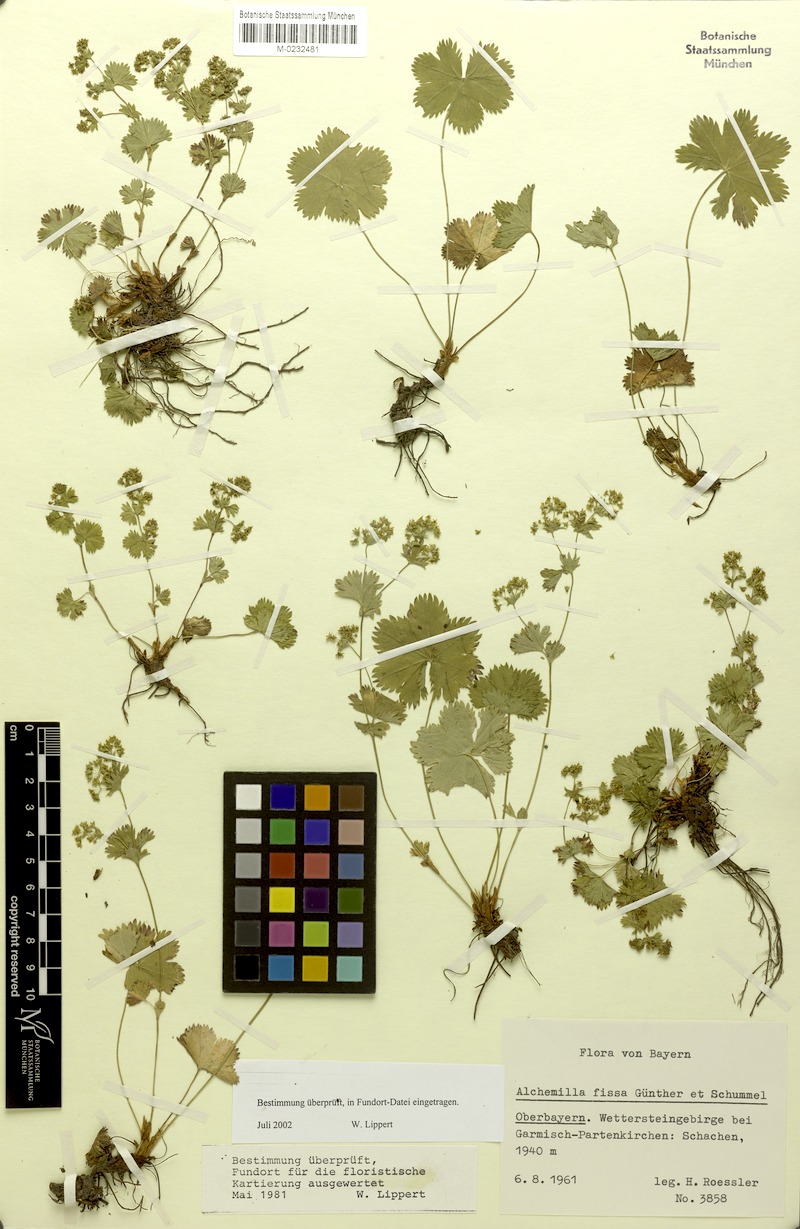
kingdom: Plantae
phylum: Tracheophyta
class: Magnoliopsida
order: Rosales
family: Rosaceae
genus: Alchemilla
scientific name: Alchemilla fissa
